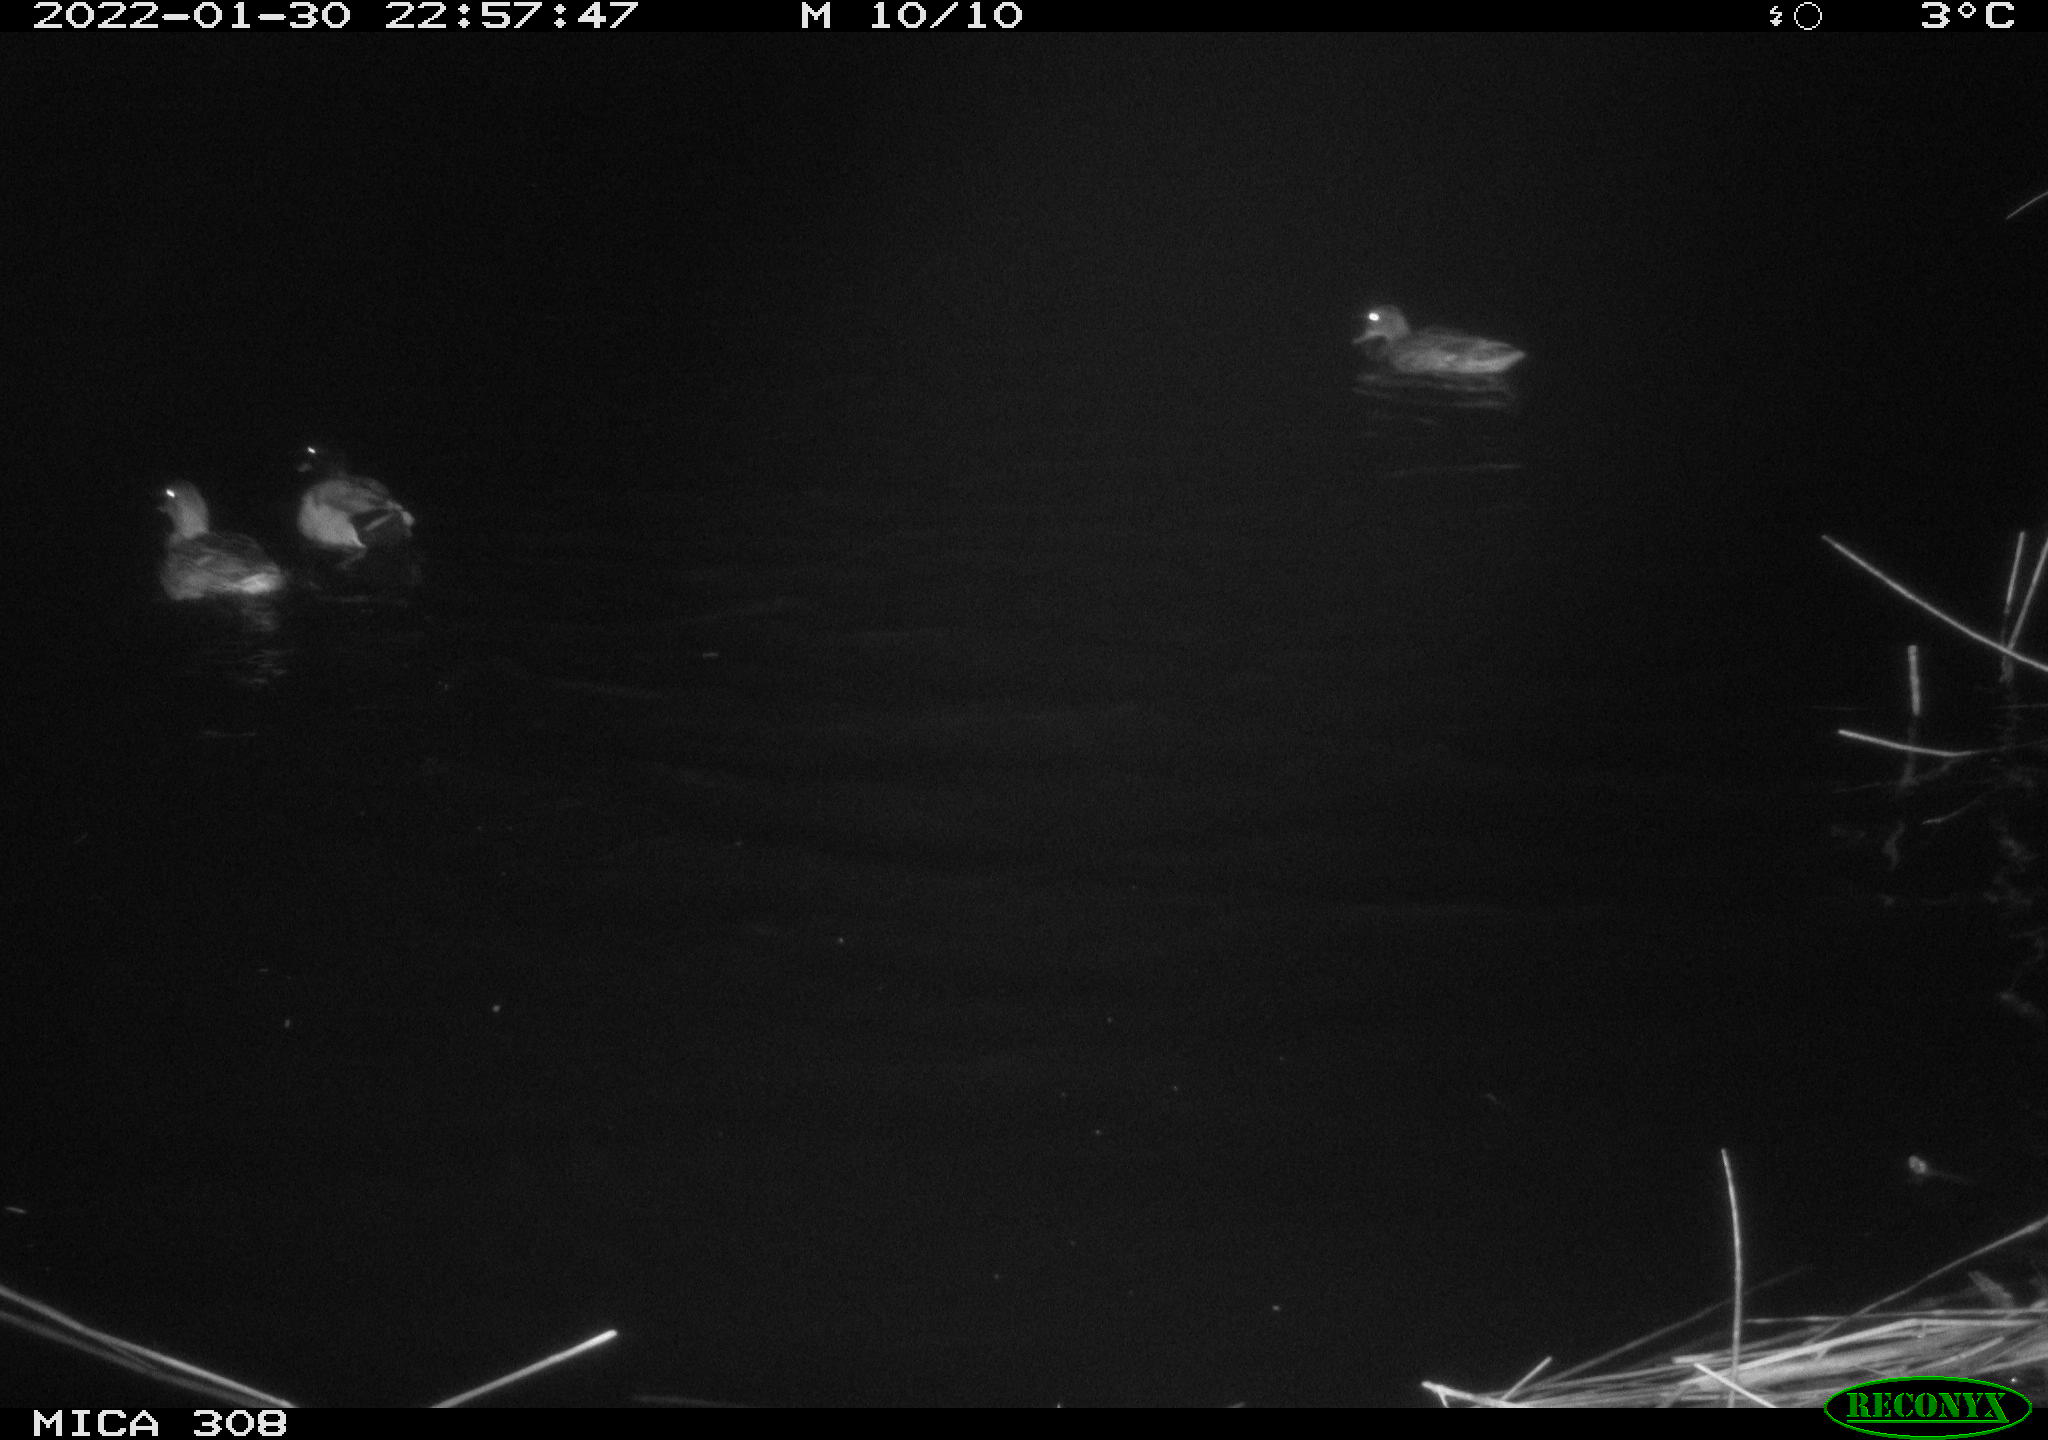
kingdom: Animalia
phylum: Chordata
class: Aves
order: Anseriformes
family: Anatidae
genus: Anas
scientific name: Anas
